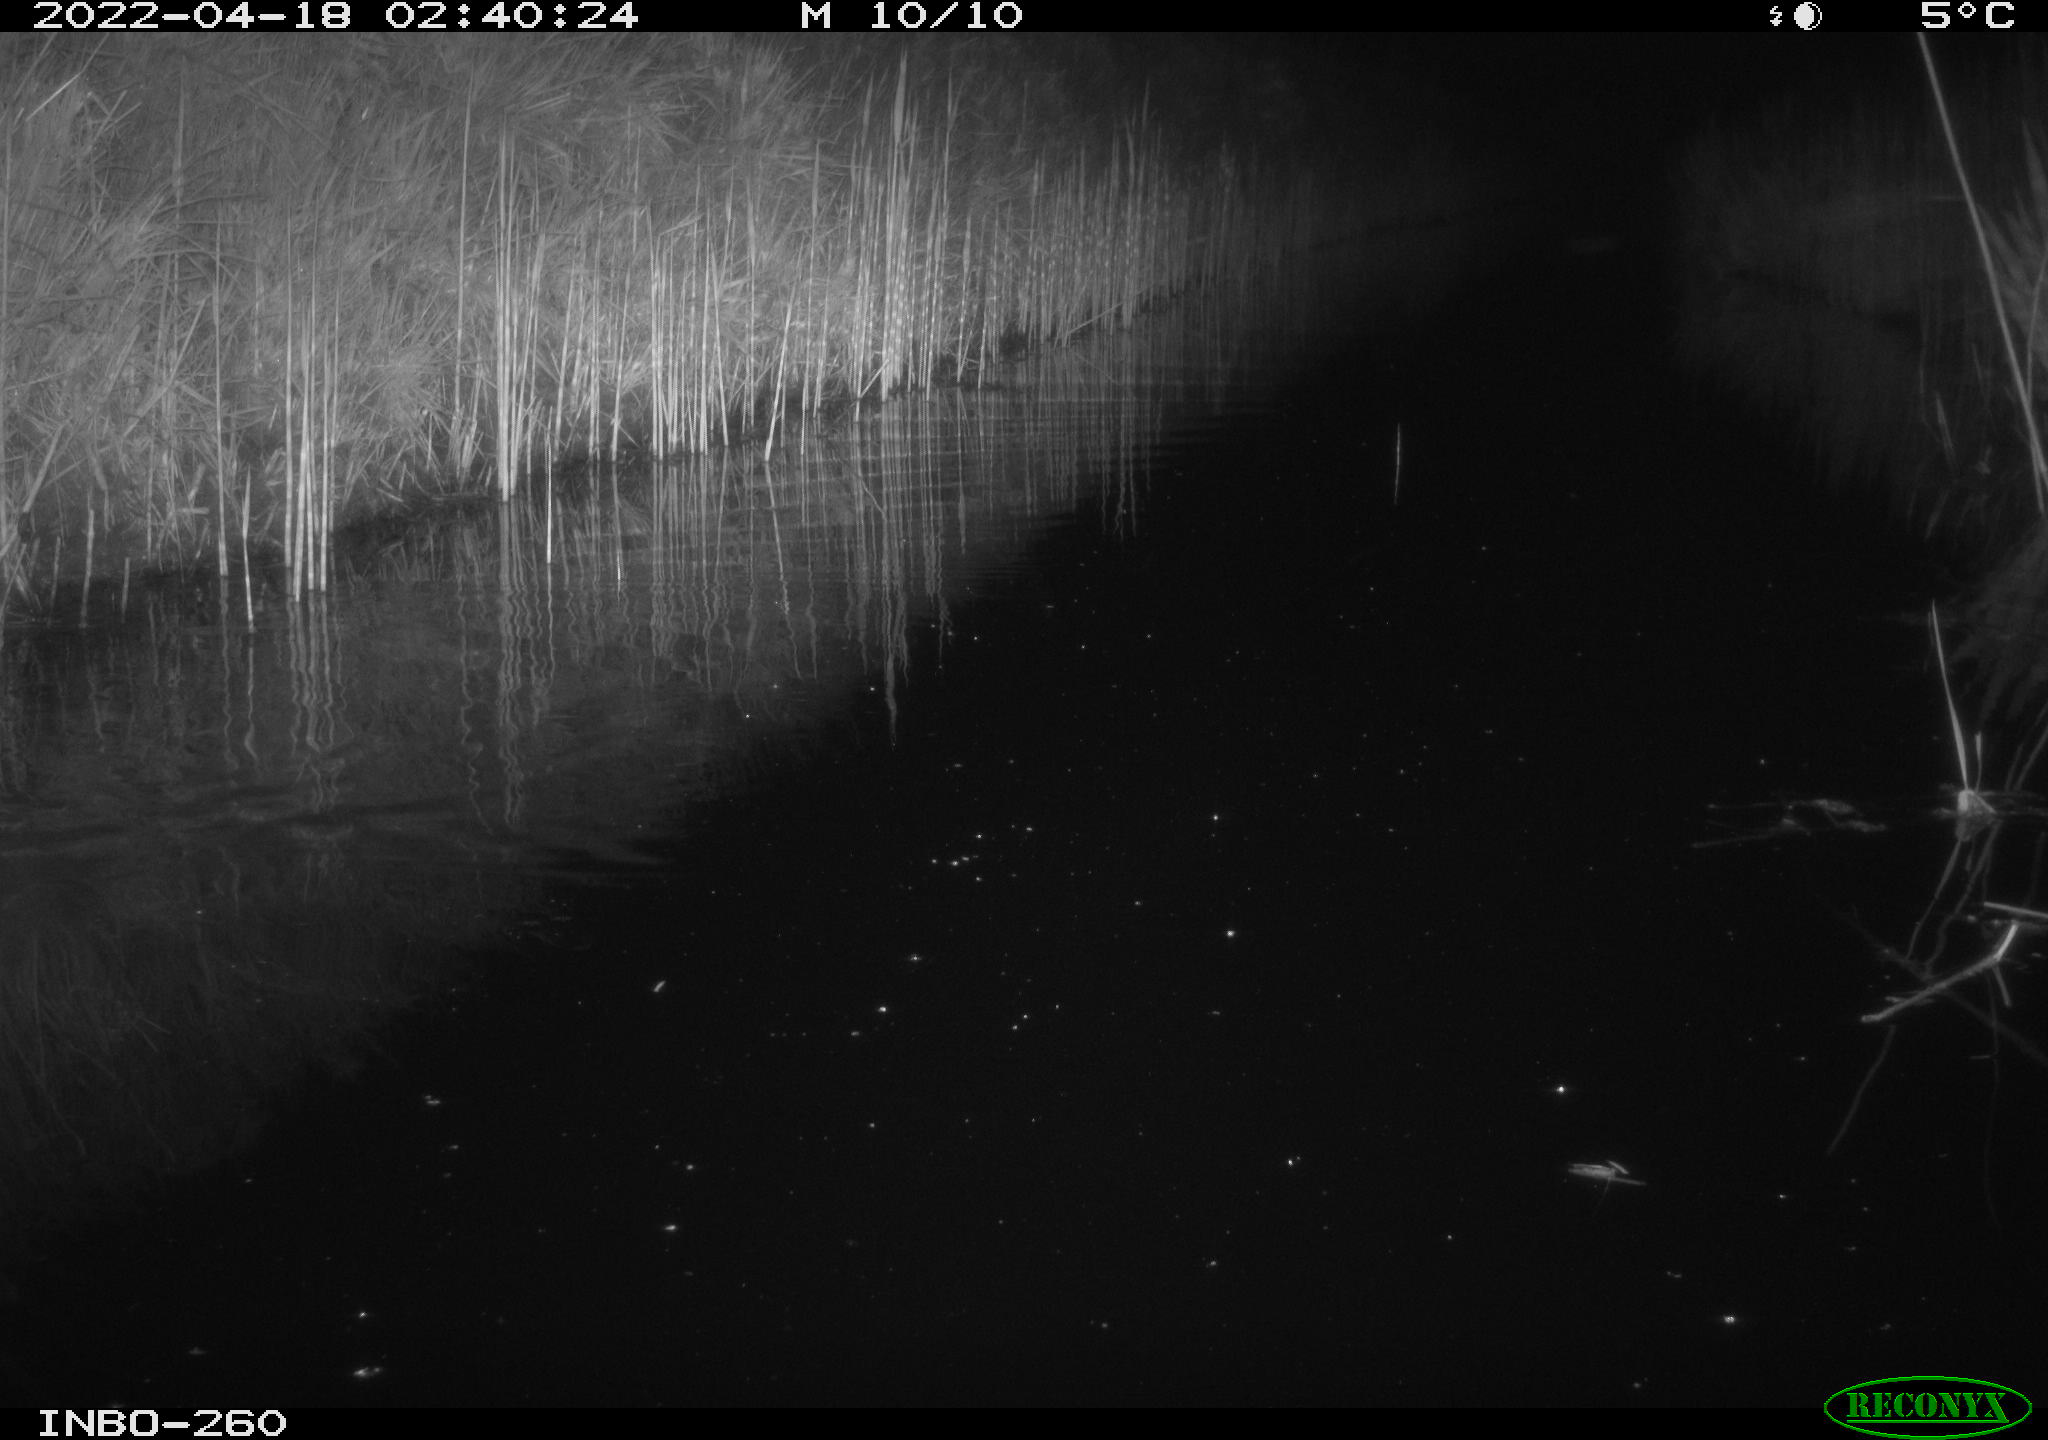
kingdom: Animalia
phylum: Chordata
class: Mammalia
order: Rodentia
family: Muridae
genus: Rattus
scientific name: Rattus norvegicus
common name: Brown rat
